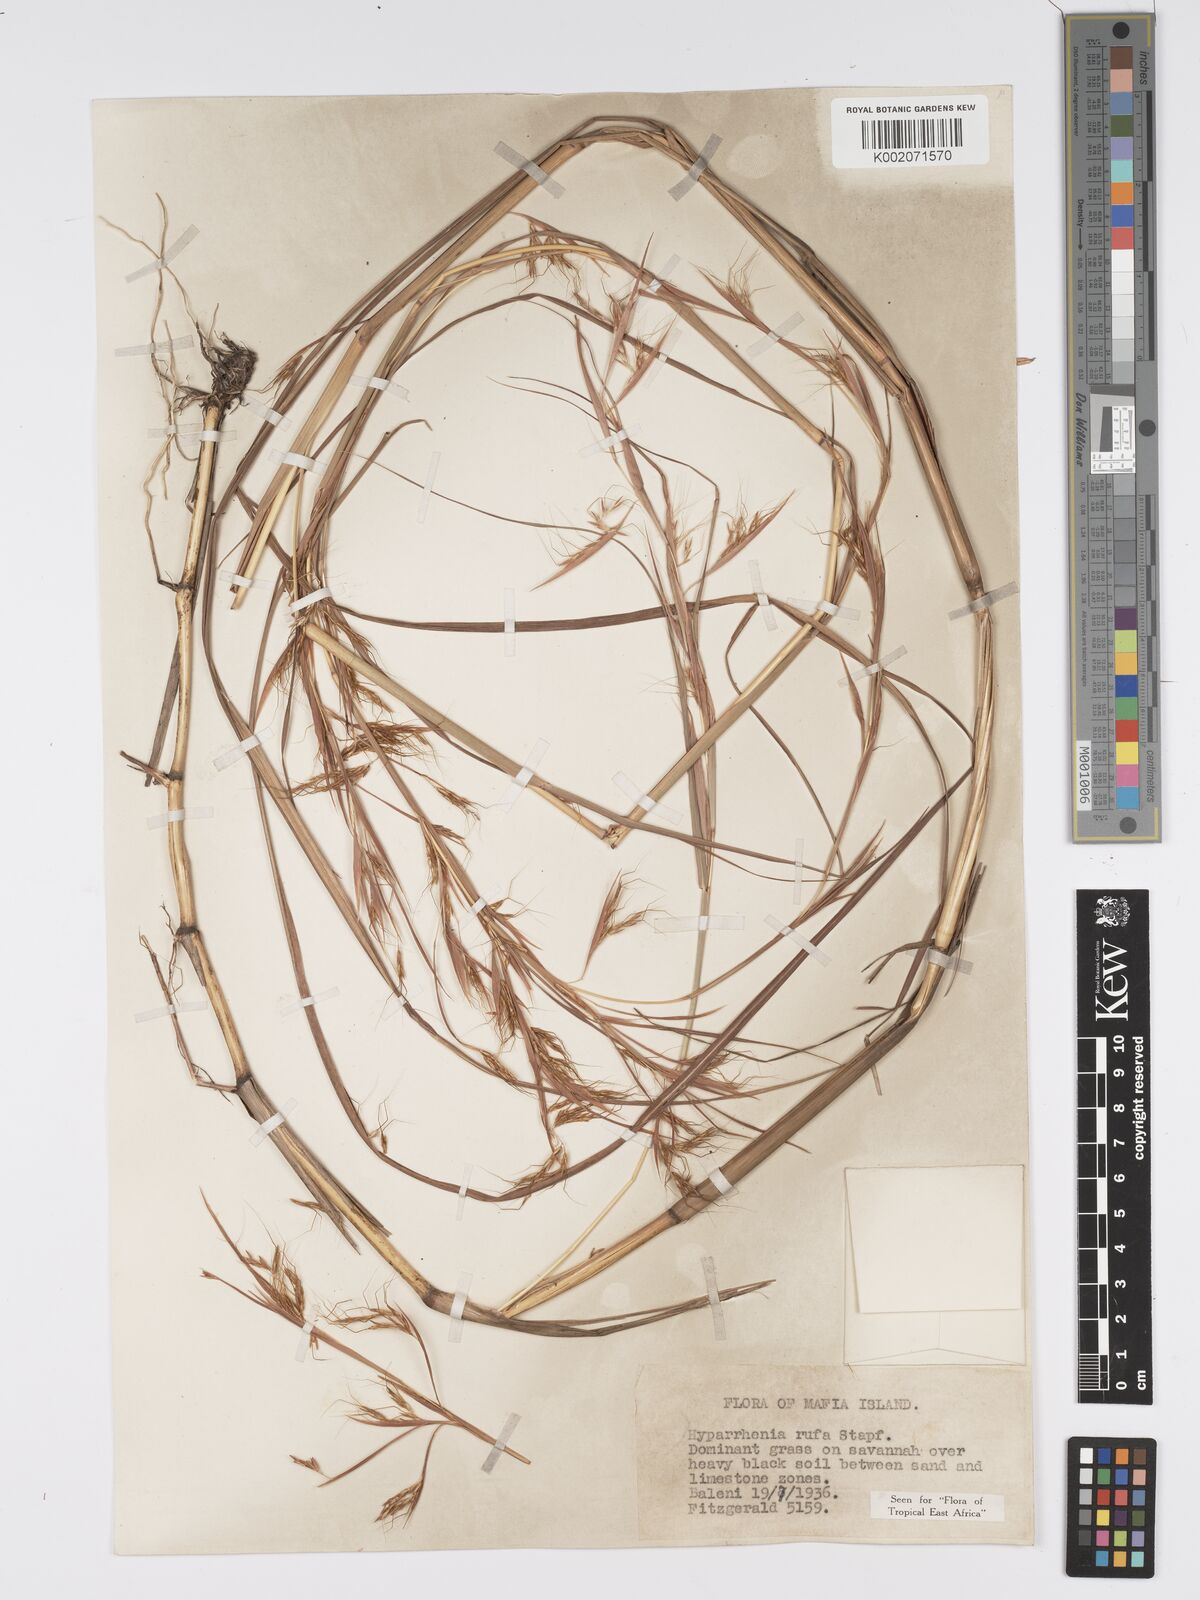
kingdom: Plantae
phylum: Tracheophyta
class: Liliopsida
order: Poales
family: Poaceae
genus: Hyparrhenia
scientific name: Hyparrhenia rufa
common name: Jaraguagrass
